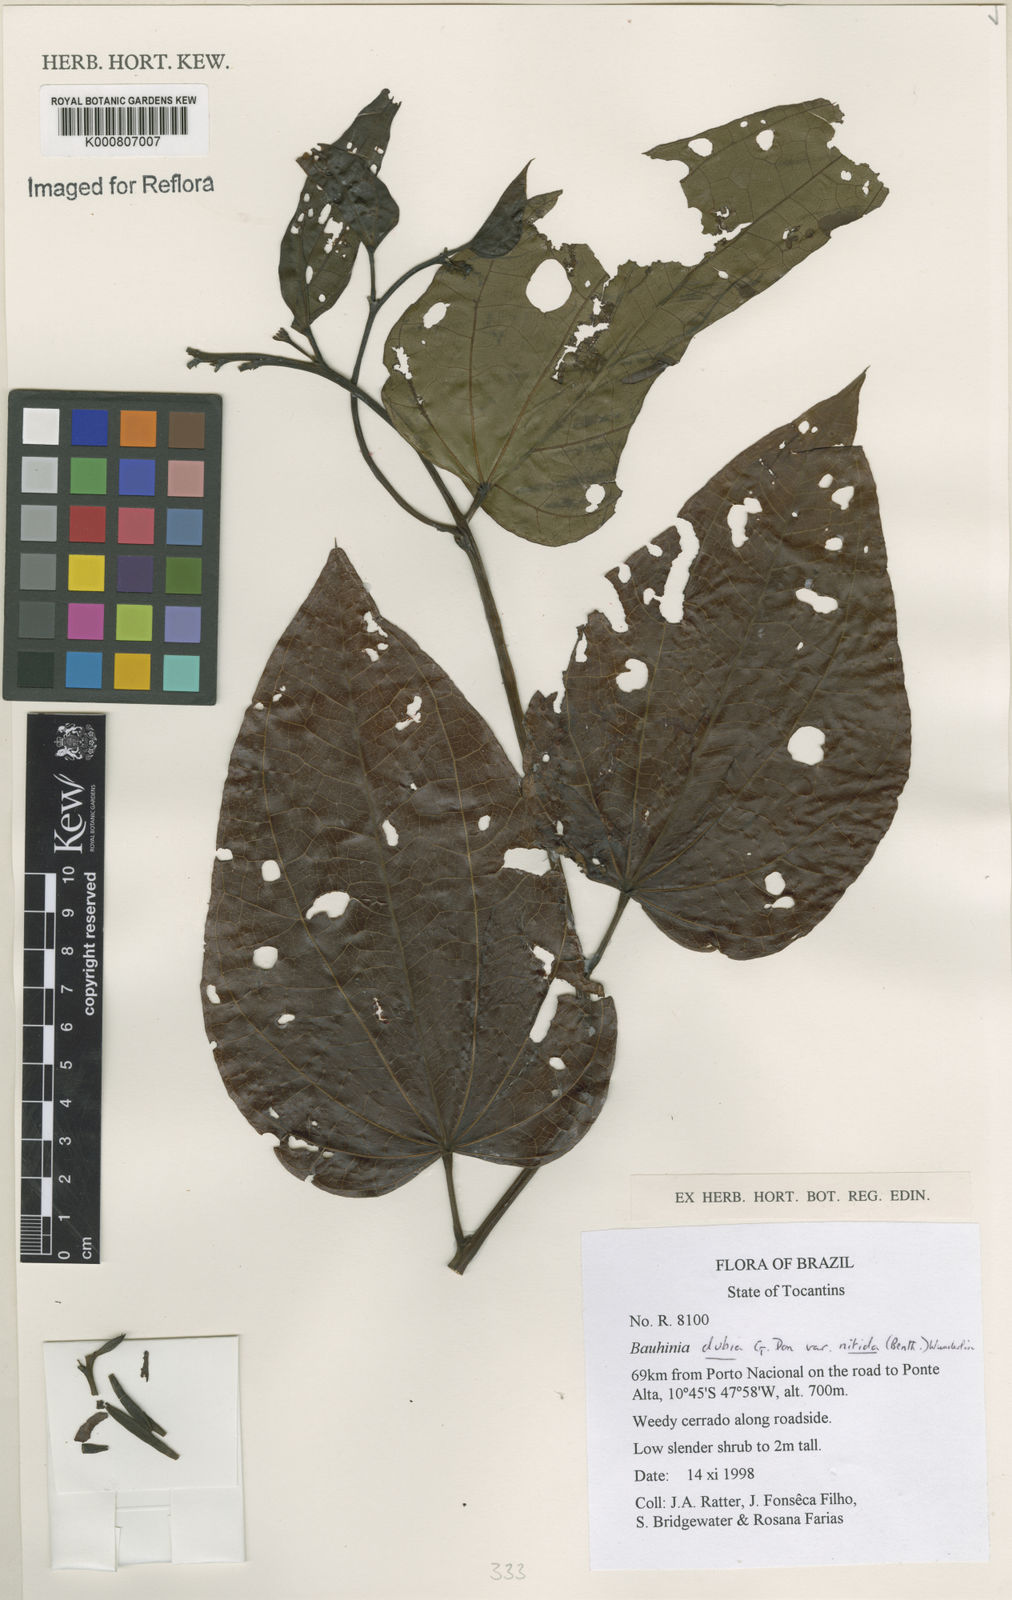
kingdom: Plantae
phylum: Tracheophyta
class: Magnoliopsida
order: Fabales
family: Fabaceae
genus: Bauhinia
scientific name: Bauhinia dubia
